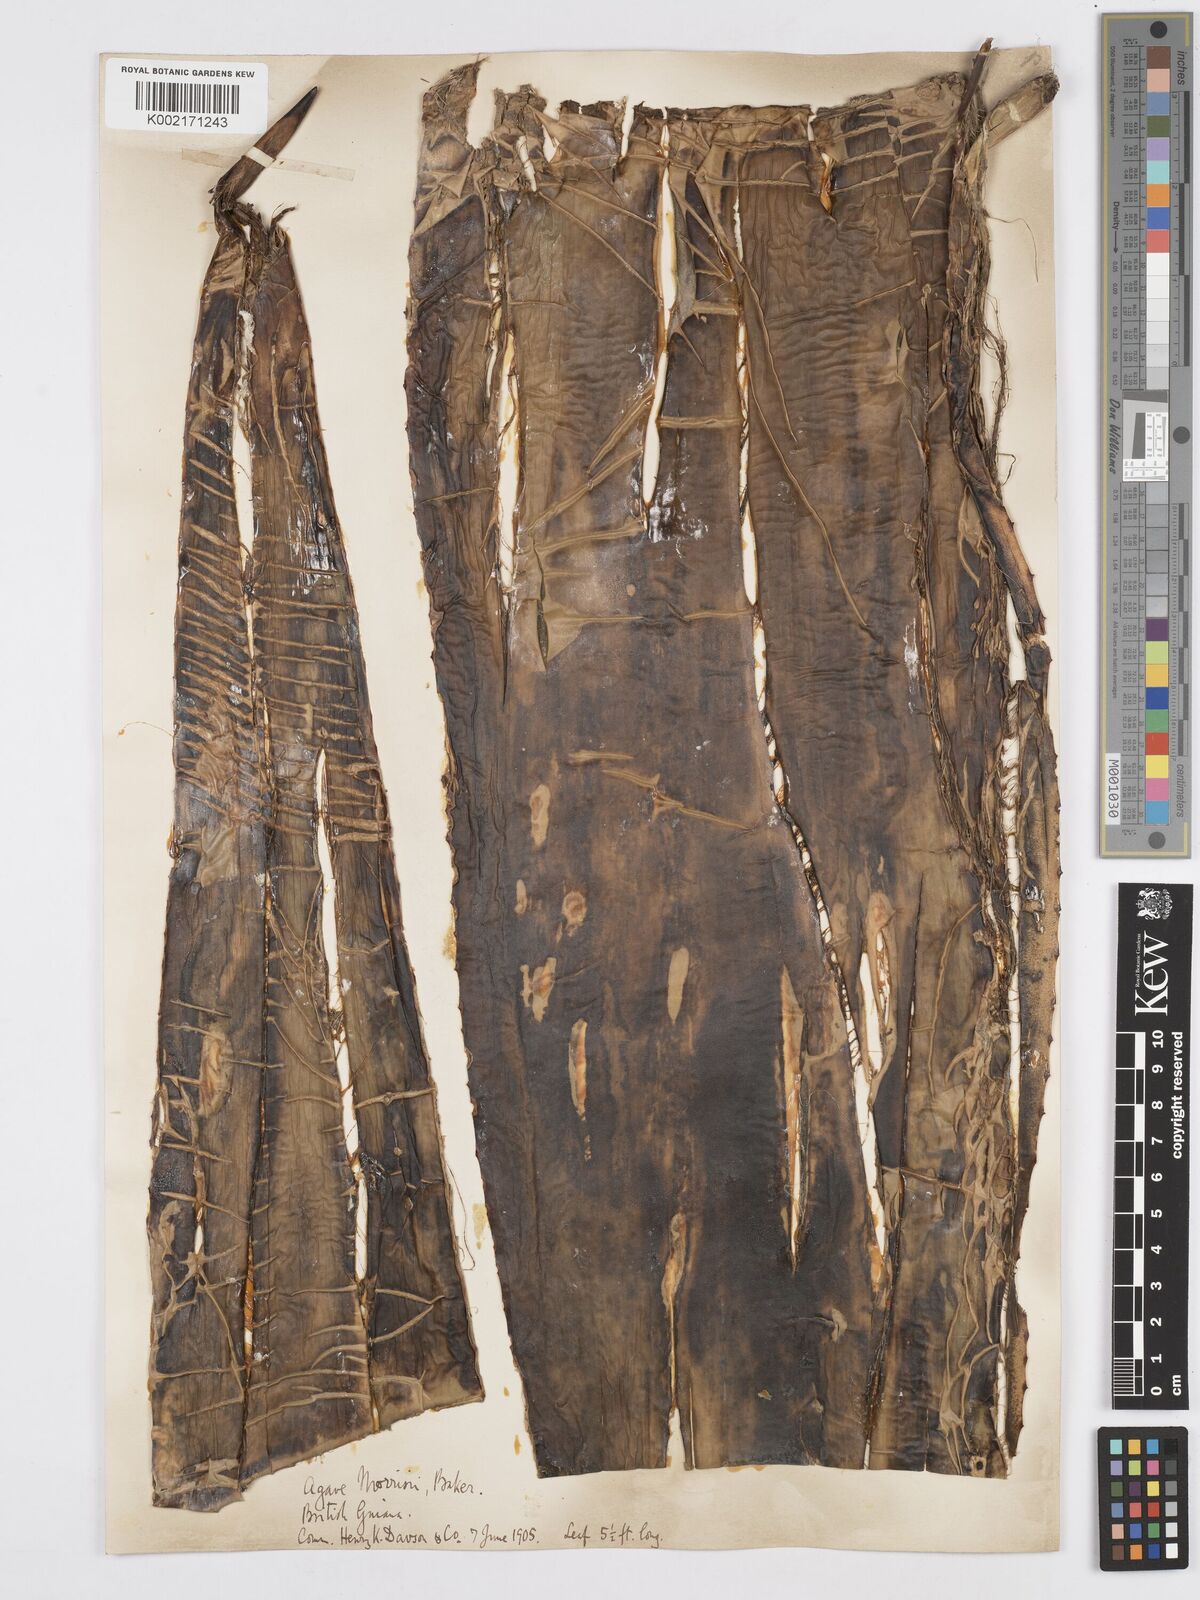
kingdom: Plantae
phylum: Tracheophyta
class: Liliopsida
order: Asparagales
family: Asparagaceae
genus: Agave
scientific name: Agave sobolifera
